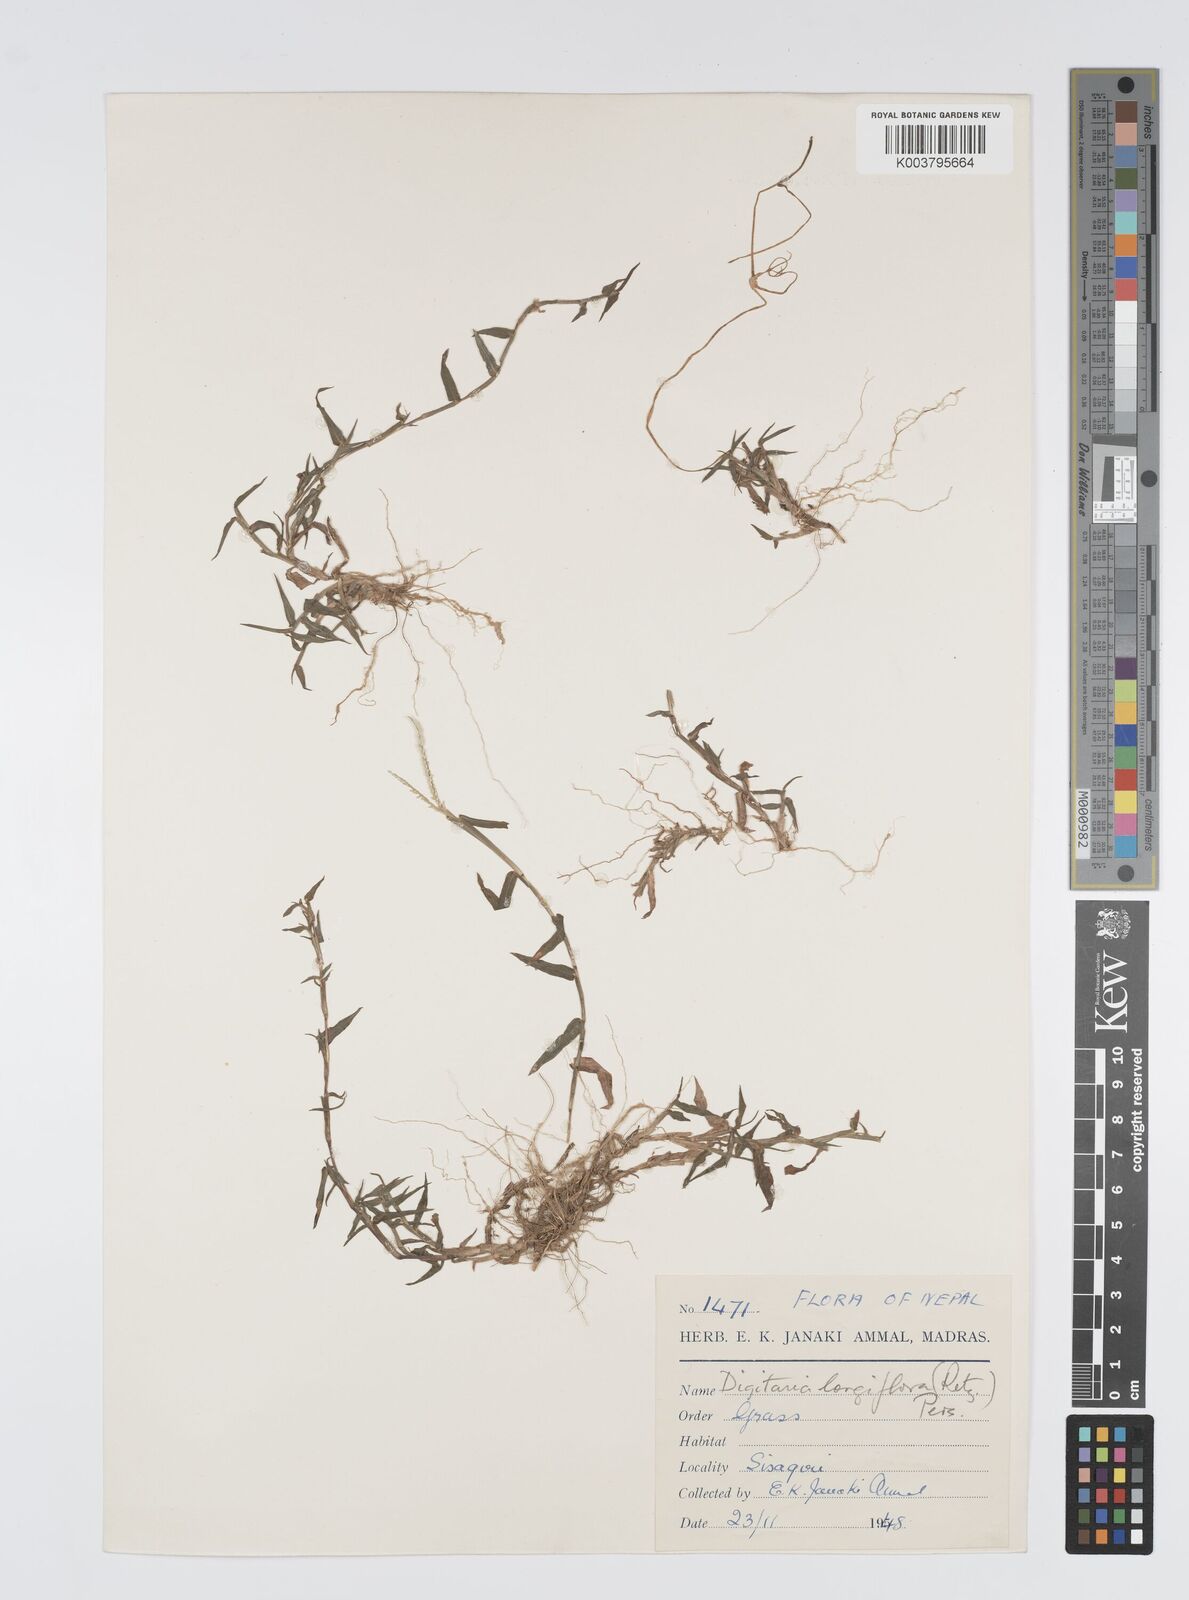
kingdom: Plantae
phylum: Tracheophyta
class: Liliopsida
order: Poales
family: Poaceae
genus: Digitaria
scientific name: Digitaria longiflora
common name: Wire crabgrass
